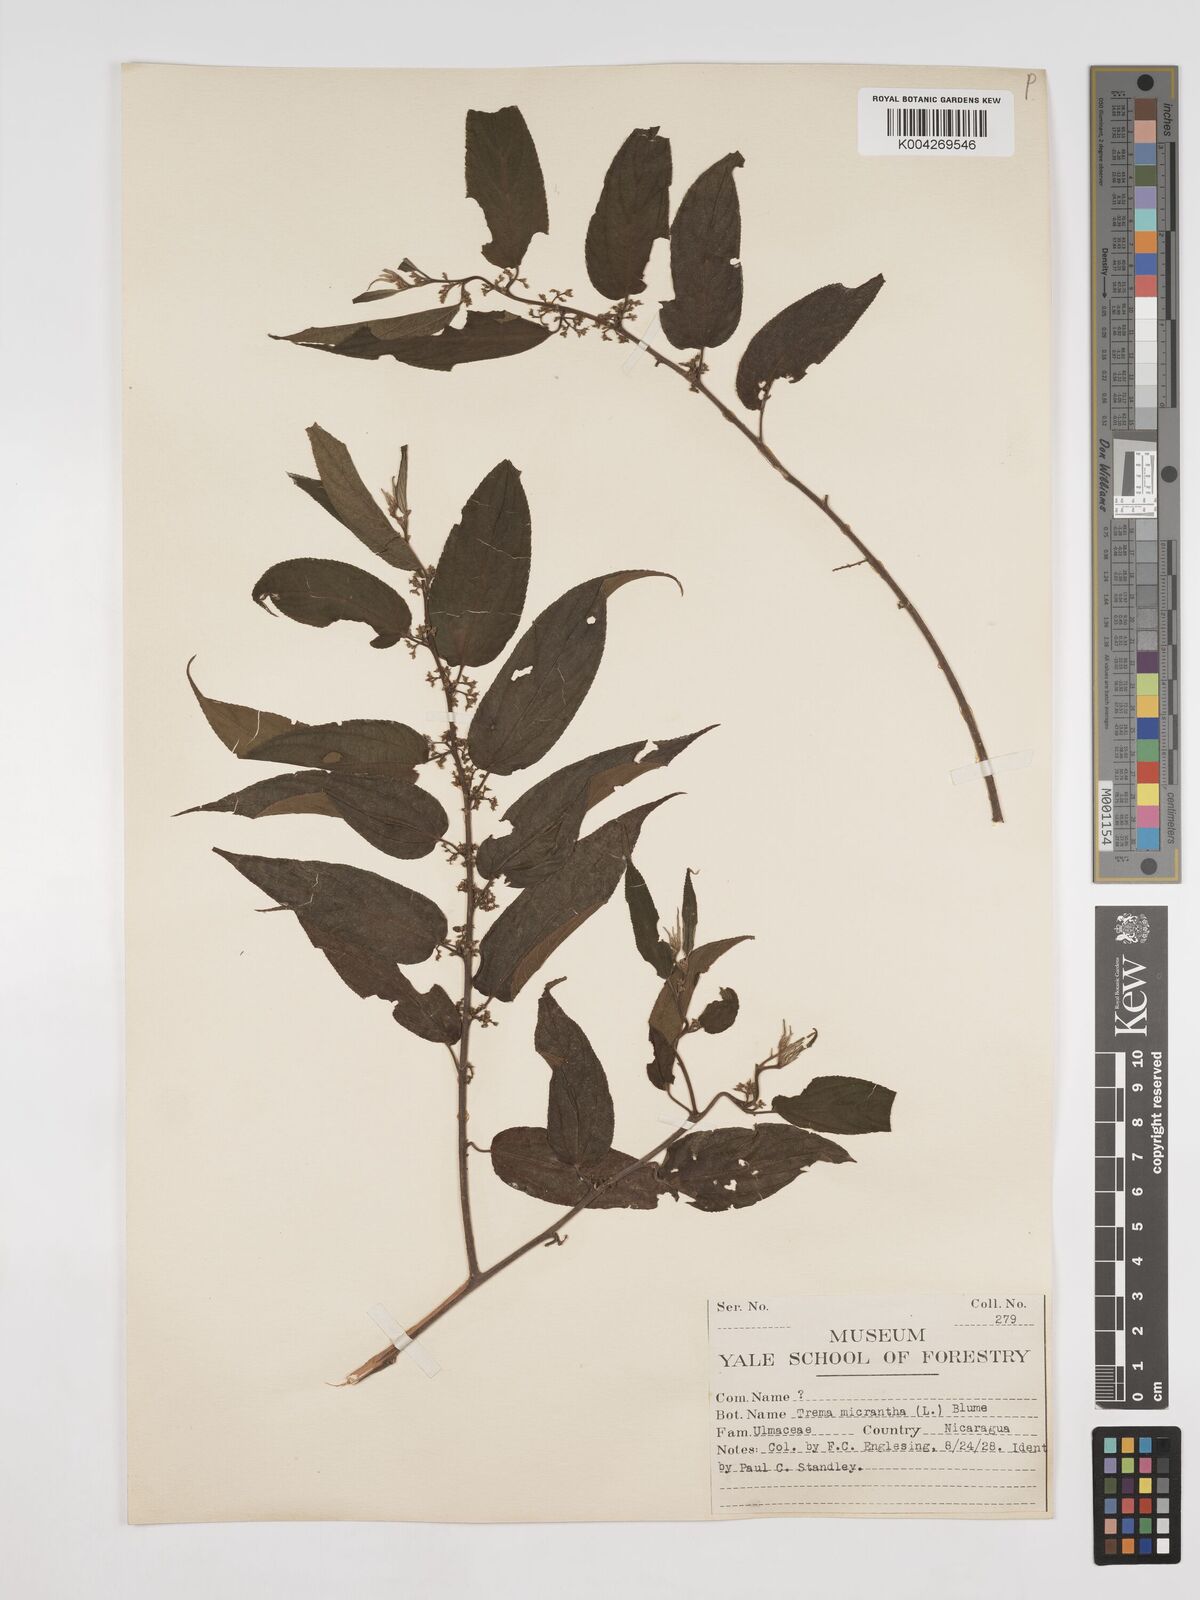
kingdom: Plantae
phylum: Tracheophyta
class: Magnoliopsida
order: Rosales
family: Cannabaceae
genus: Trema
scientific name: Trema micranthum
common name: Jamaican nettletree
